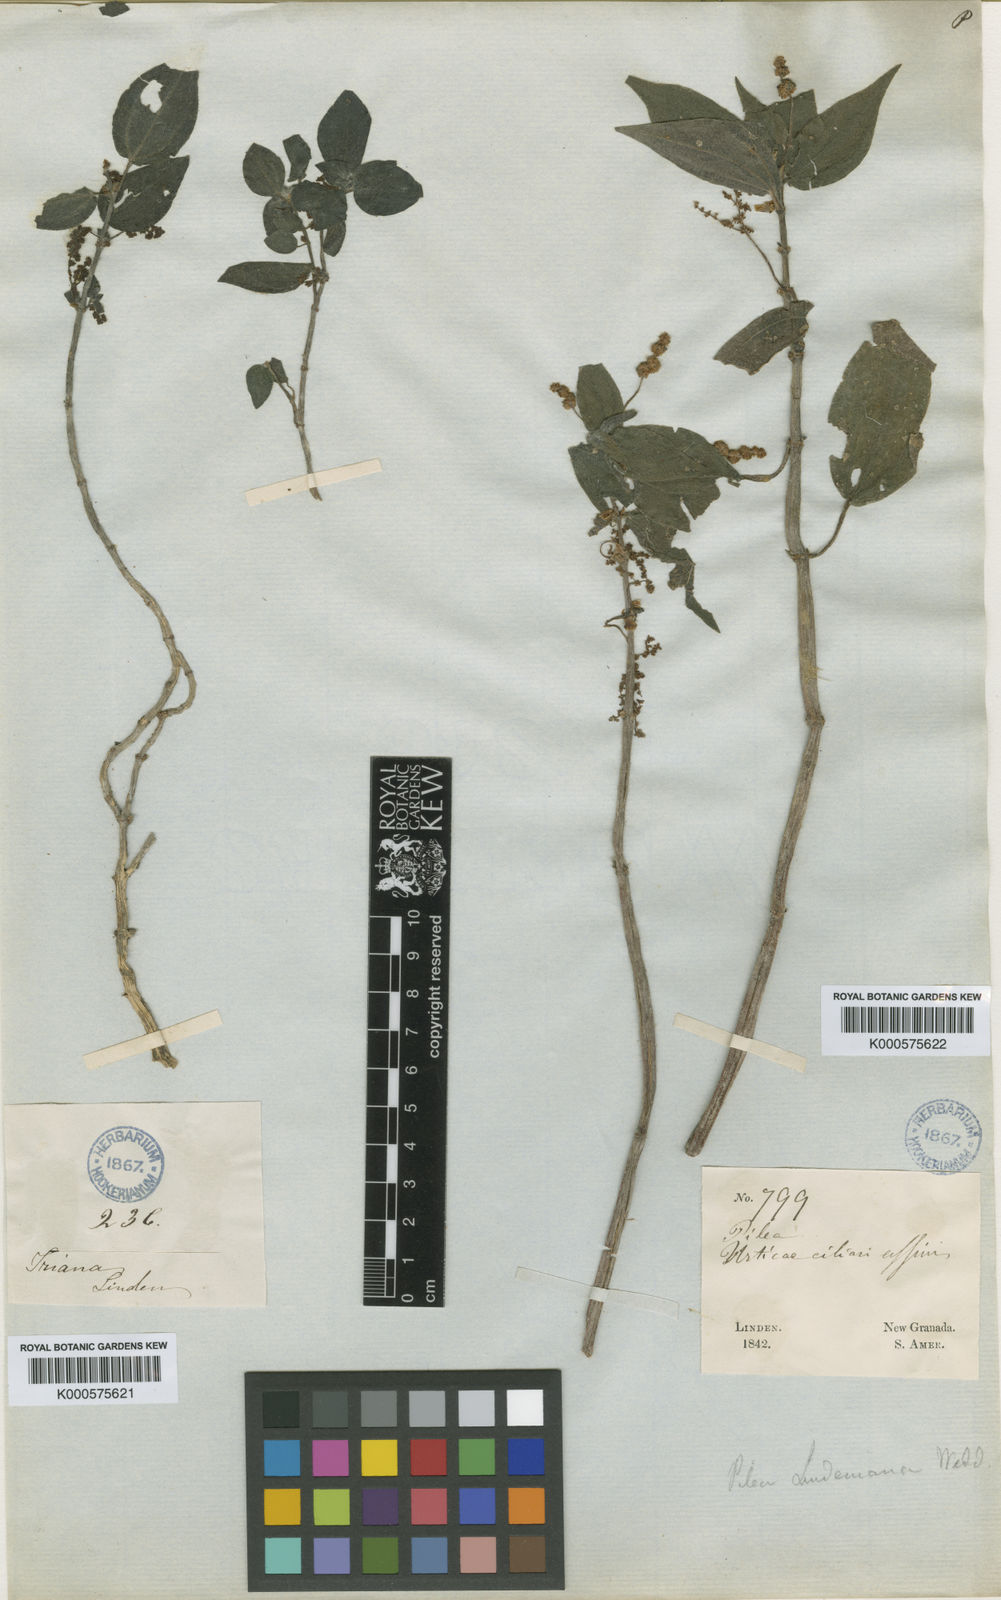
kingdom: Plantae
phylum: Tracheophyta
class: Magnoliopsida
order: Rosales
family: Urticaceae
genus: Pilea
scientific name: Pilea lindeniana
